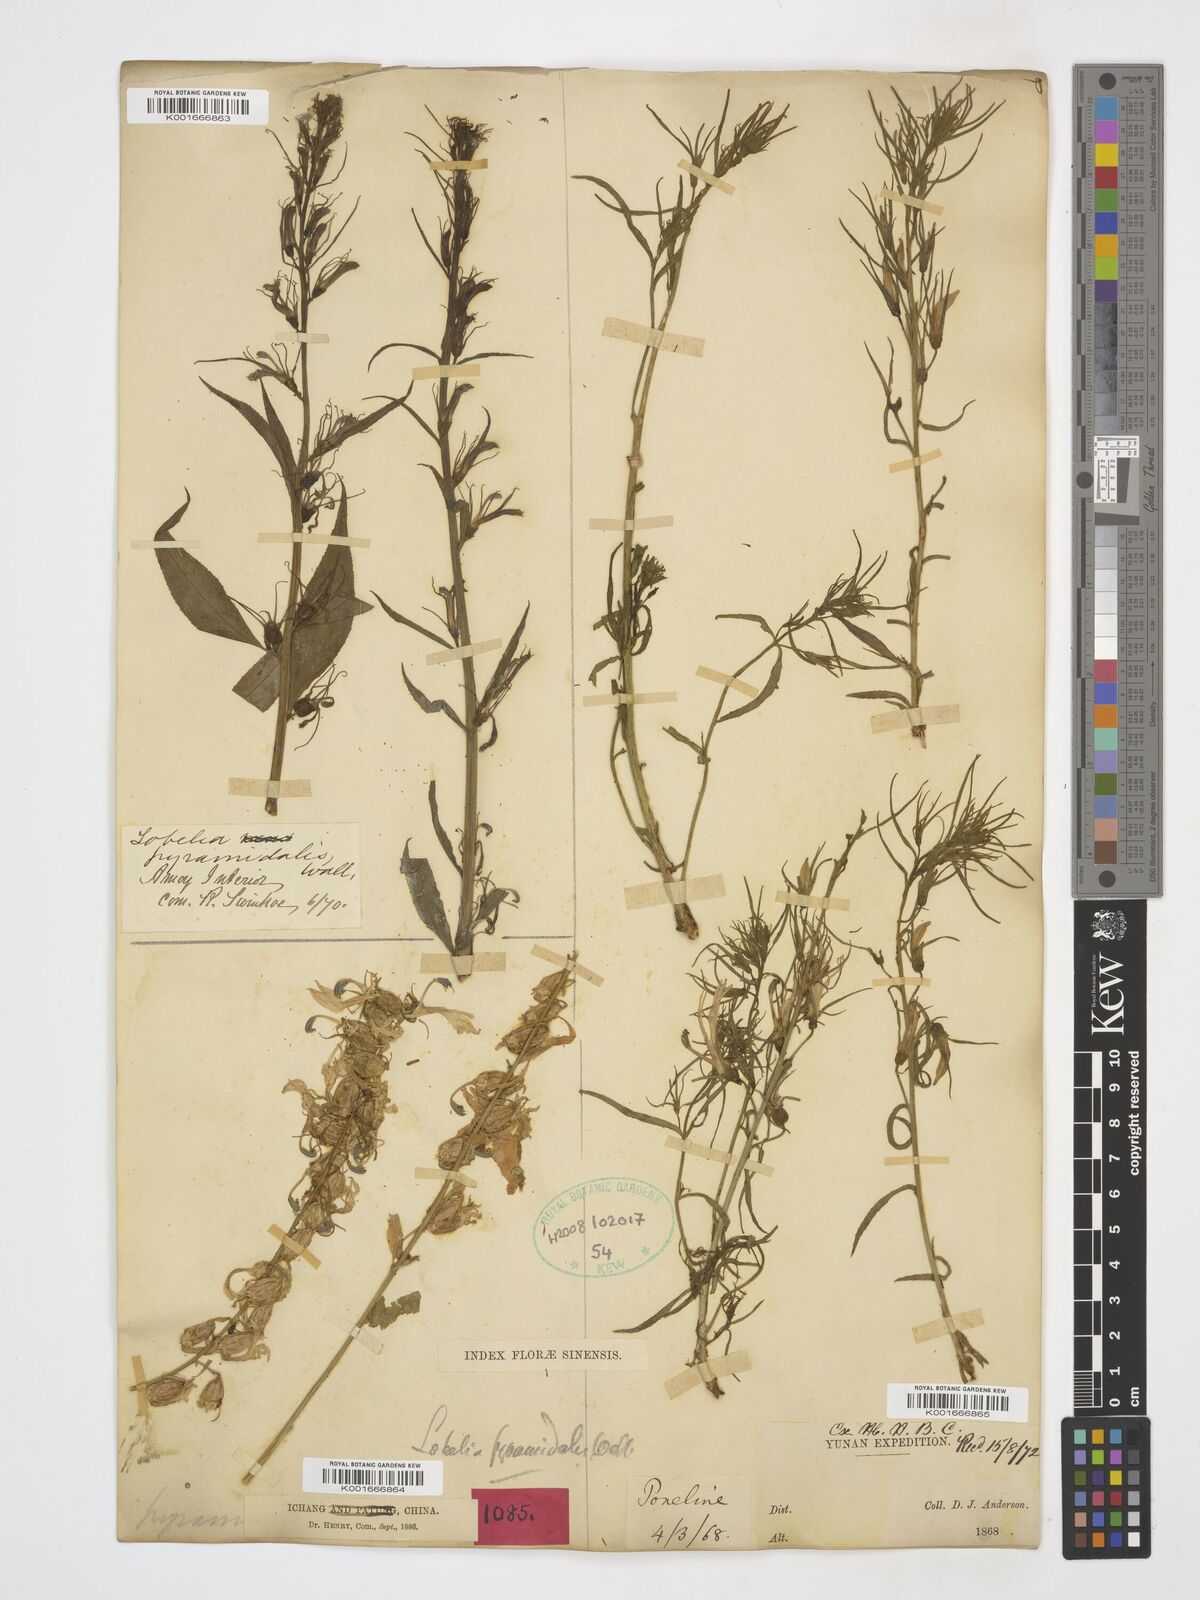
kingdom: Plantae
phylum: Tracheophyta
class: Magnoliopsida
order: Asterales
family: Campanulaceae
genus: Lobelia
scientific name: Lobelia pyramidalis
